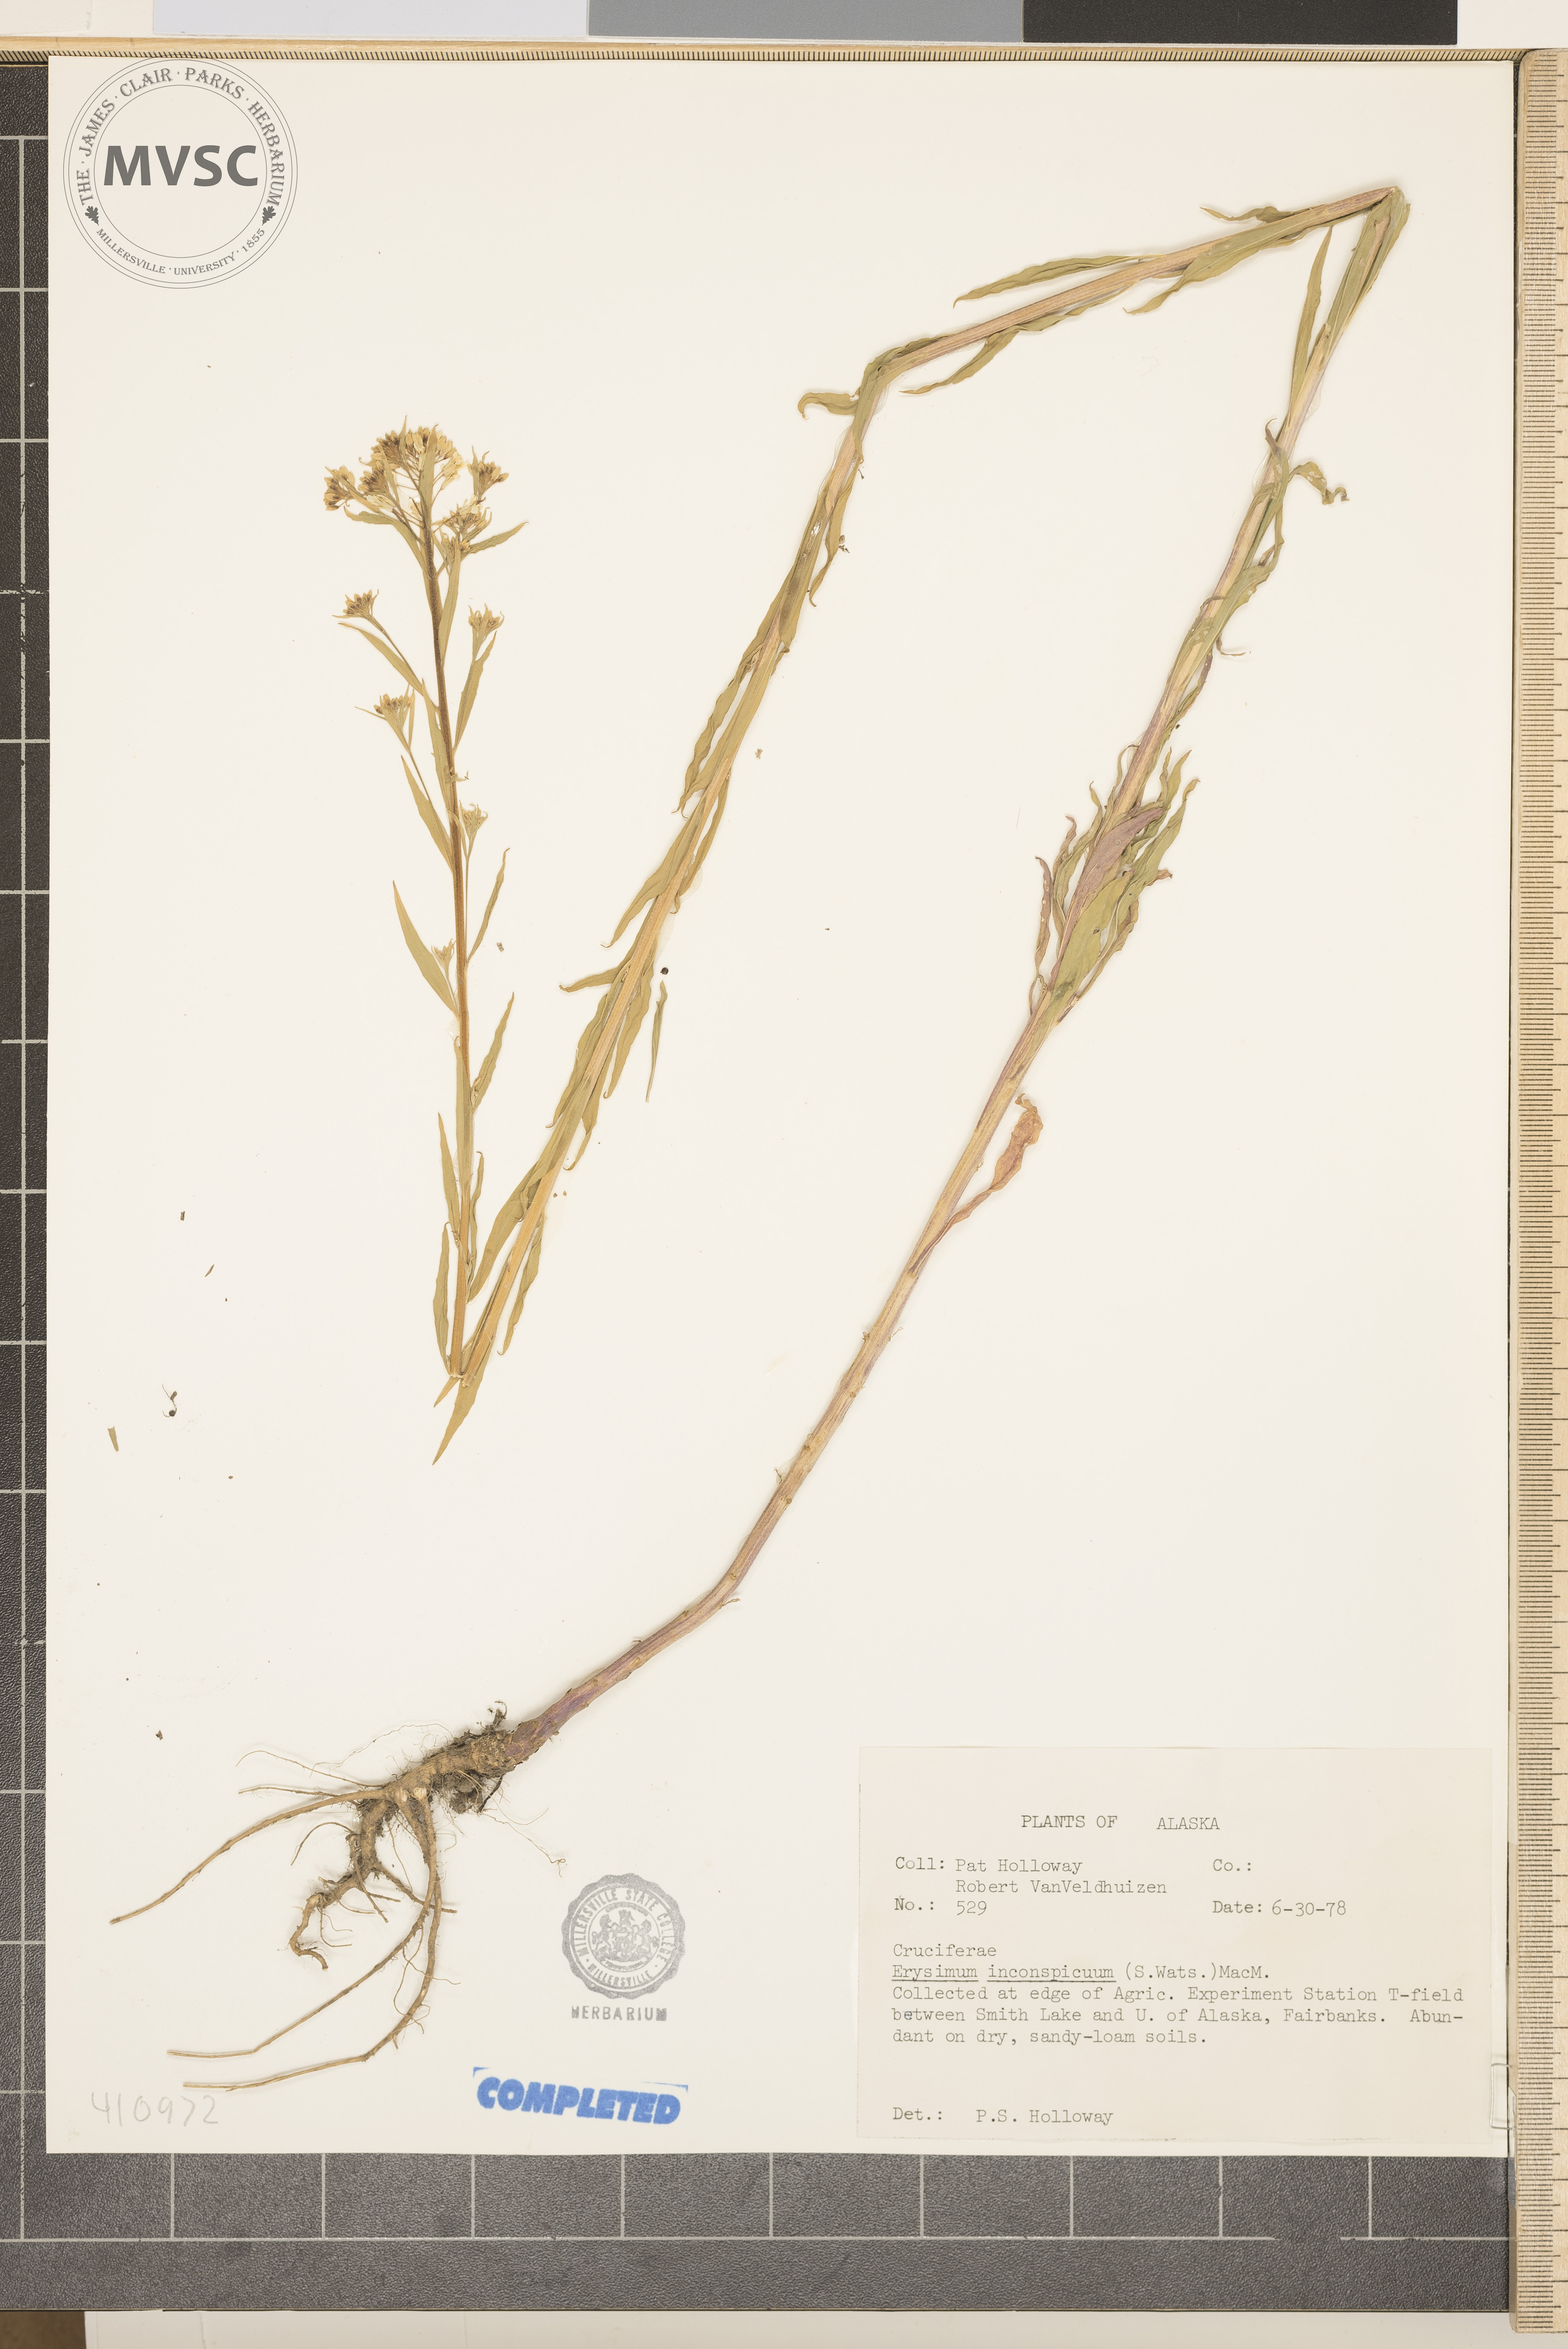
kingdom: Plantae
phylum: Tracheophyta
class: Magnoliopsida
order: Brassicales
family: Brassicaceae
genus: Erysimum
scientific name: Erysimum inconspicuum
